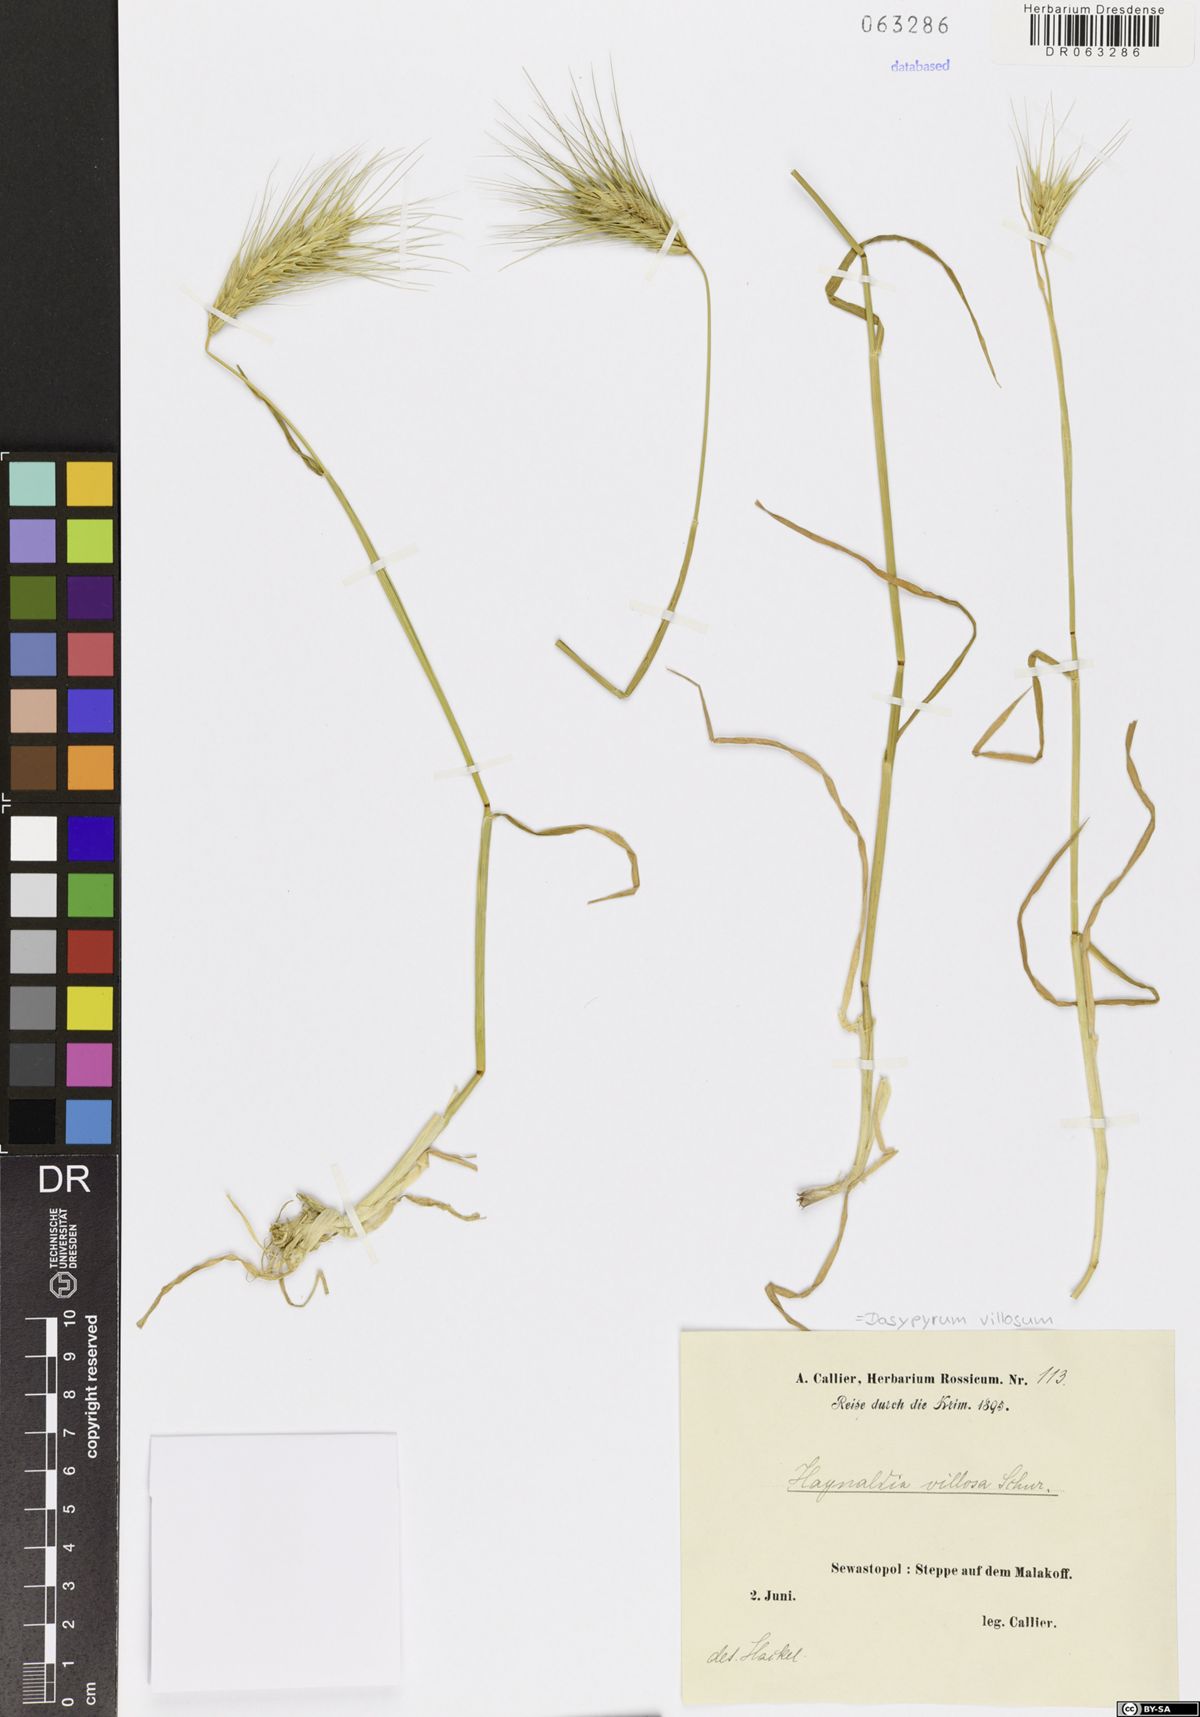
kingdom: Plantae
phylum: Tracheophyta
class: Liliopsida
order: Poales
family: Poaceae
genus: Dasypyrum
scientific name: Dasypyrum villosum
